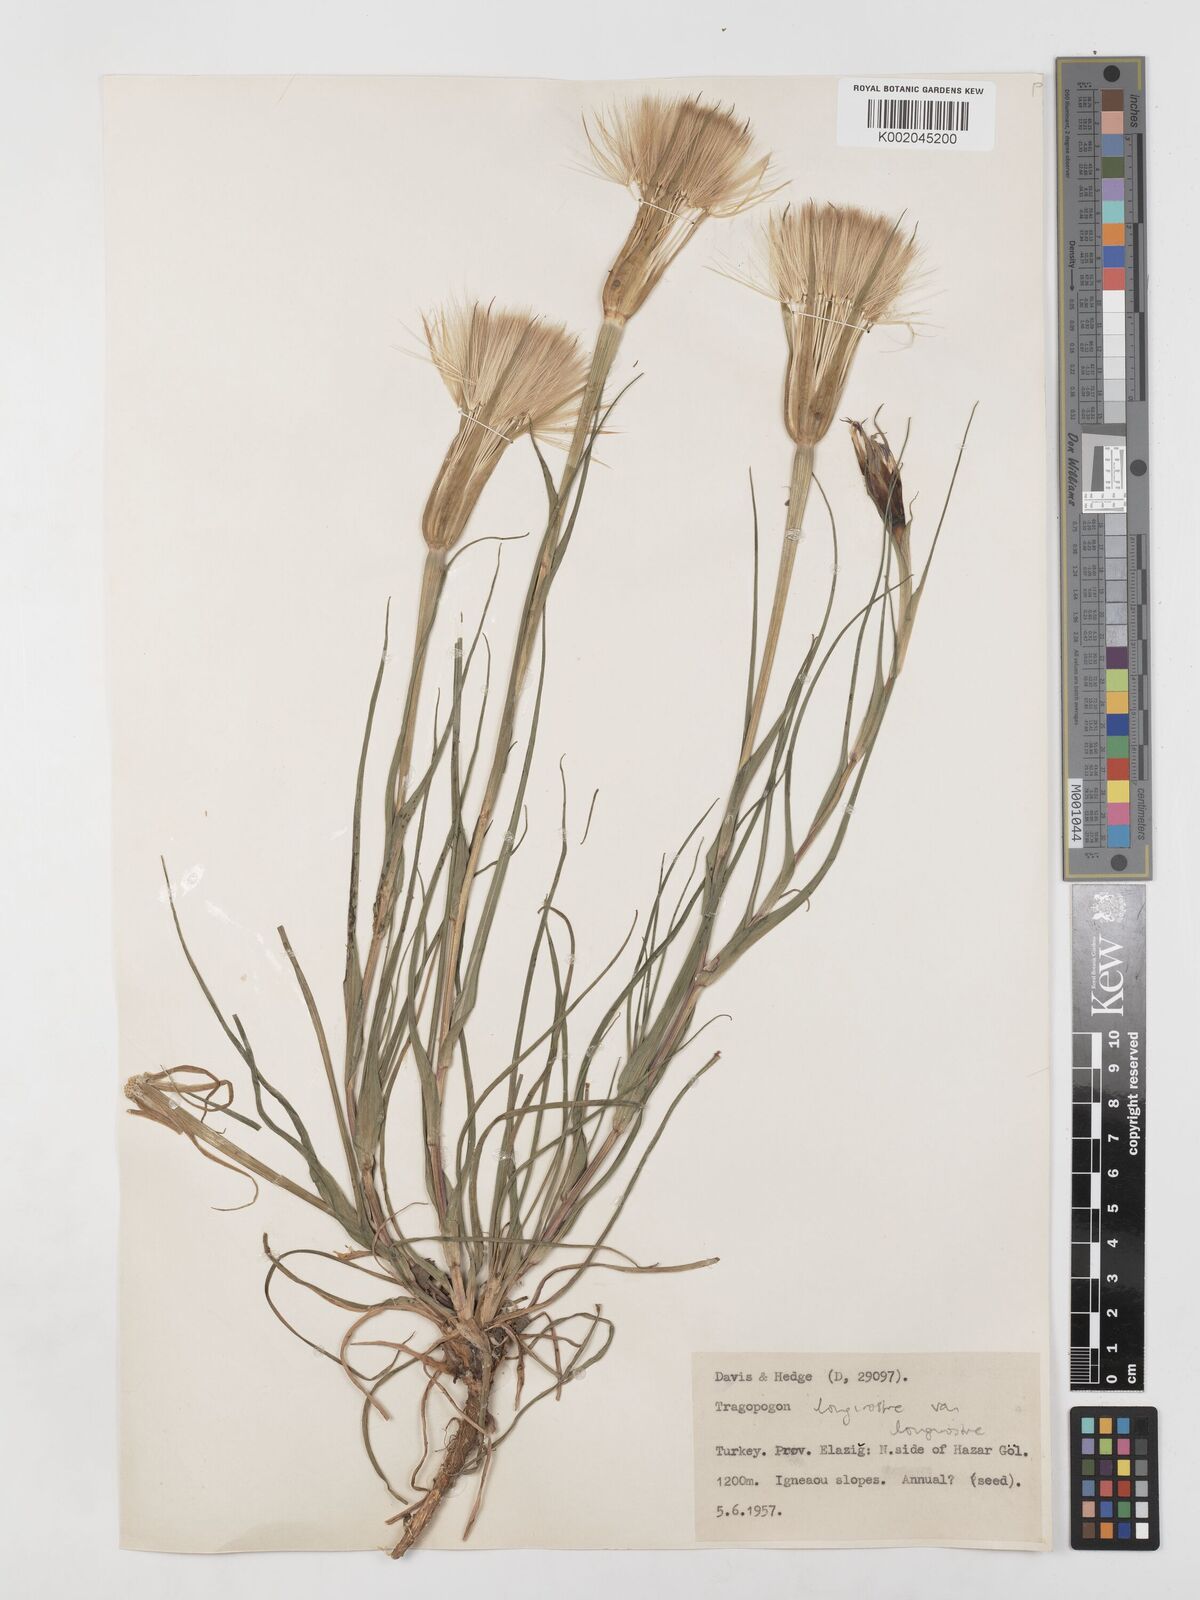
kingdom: Plantae
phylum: Tracheophyta
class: Magnoliopsida
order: Asterales
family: Asteraceae
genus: Tragopogon
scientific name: Tragopogon coelesyriacus
